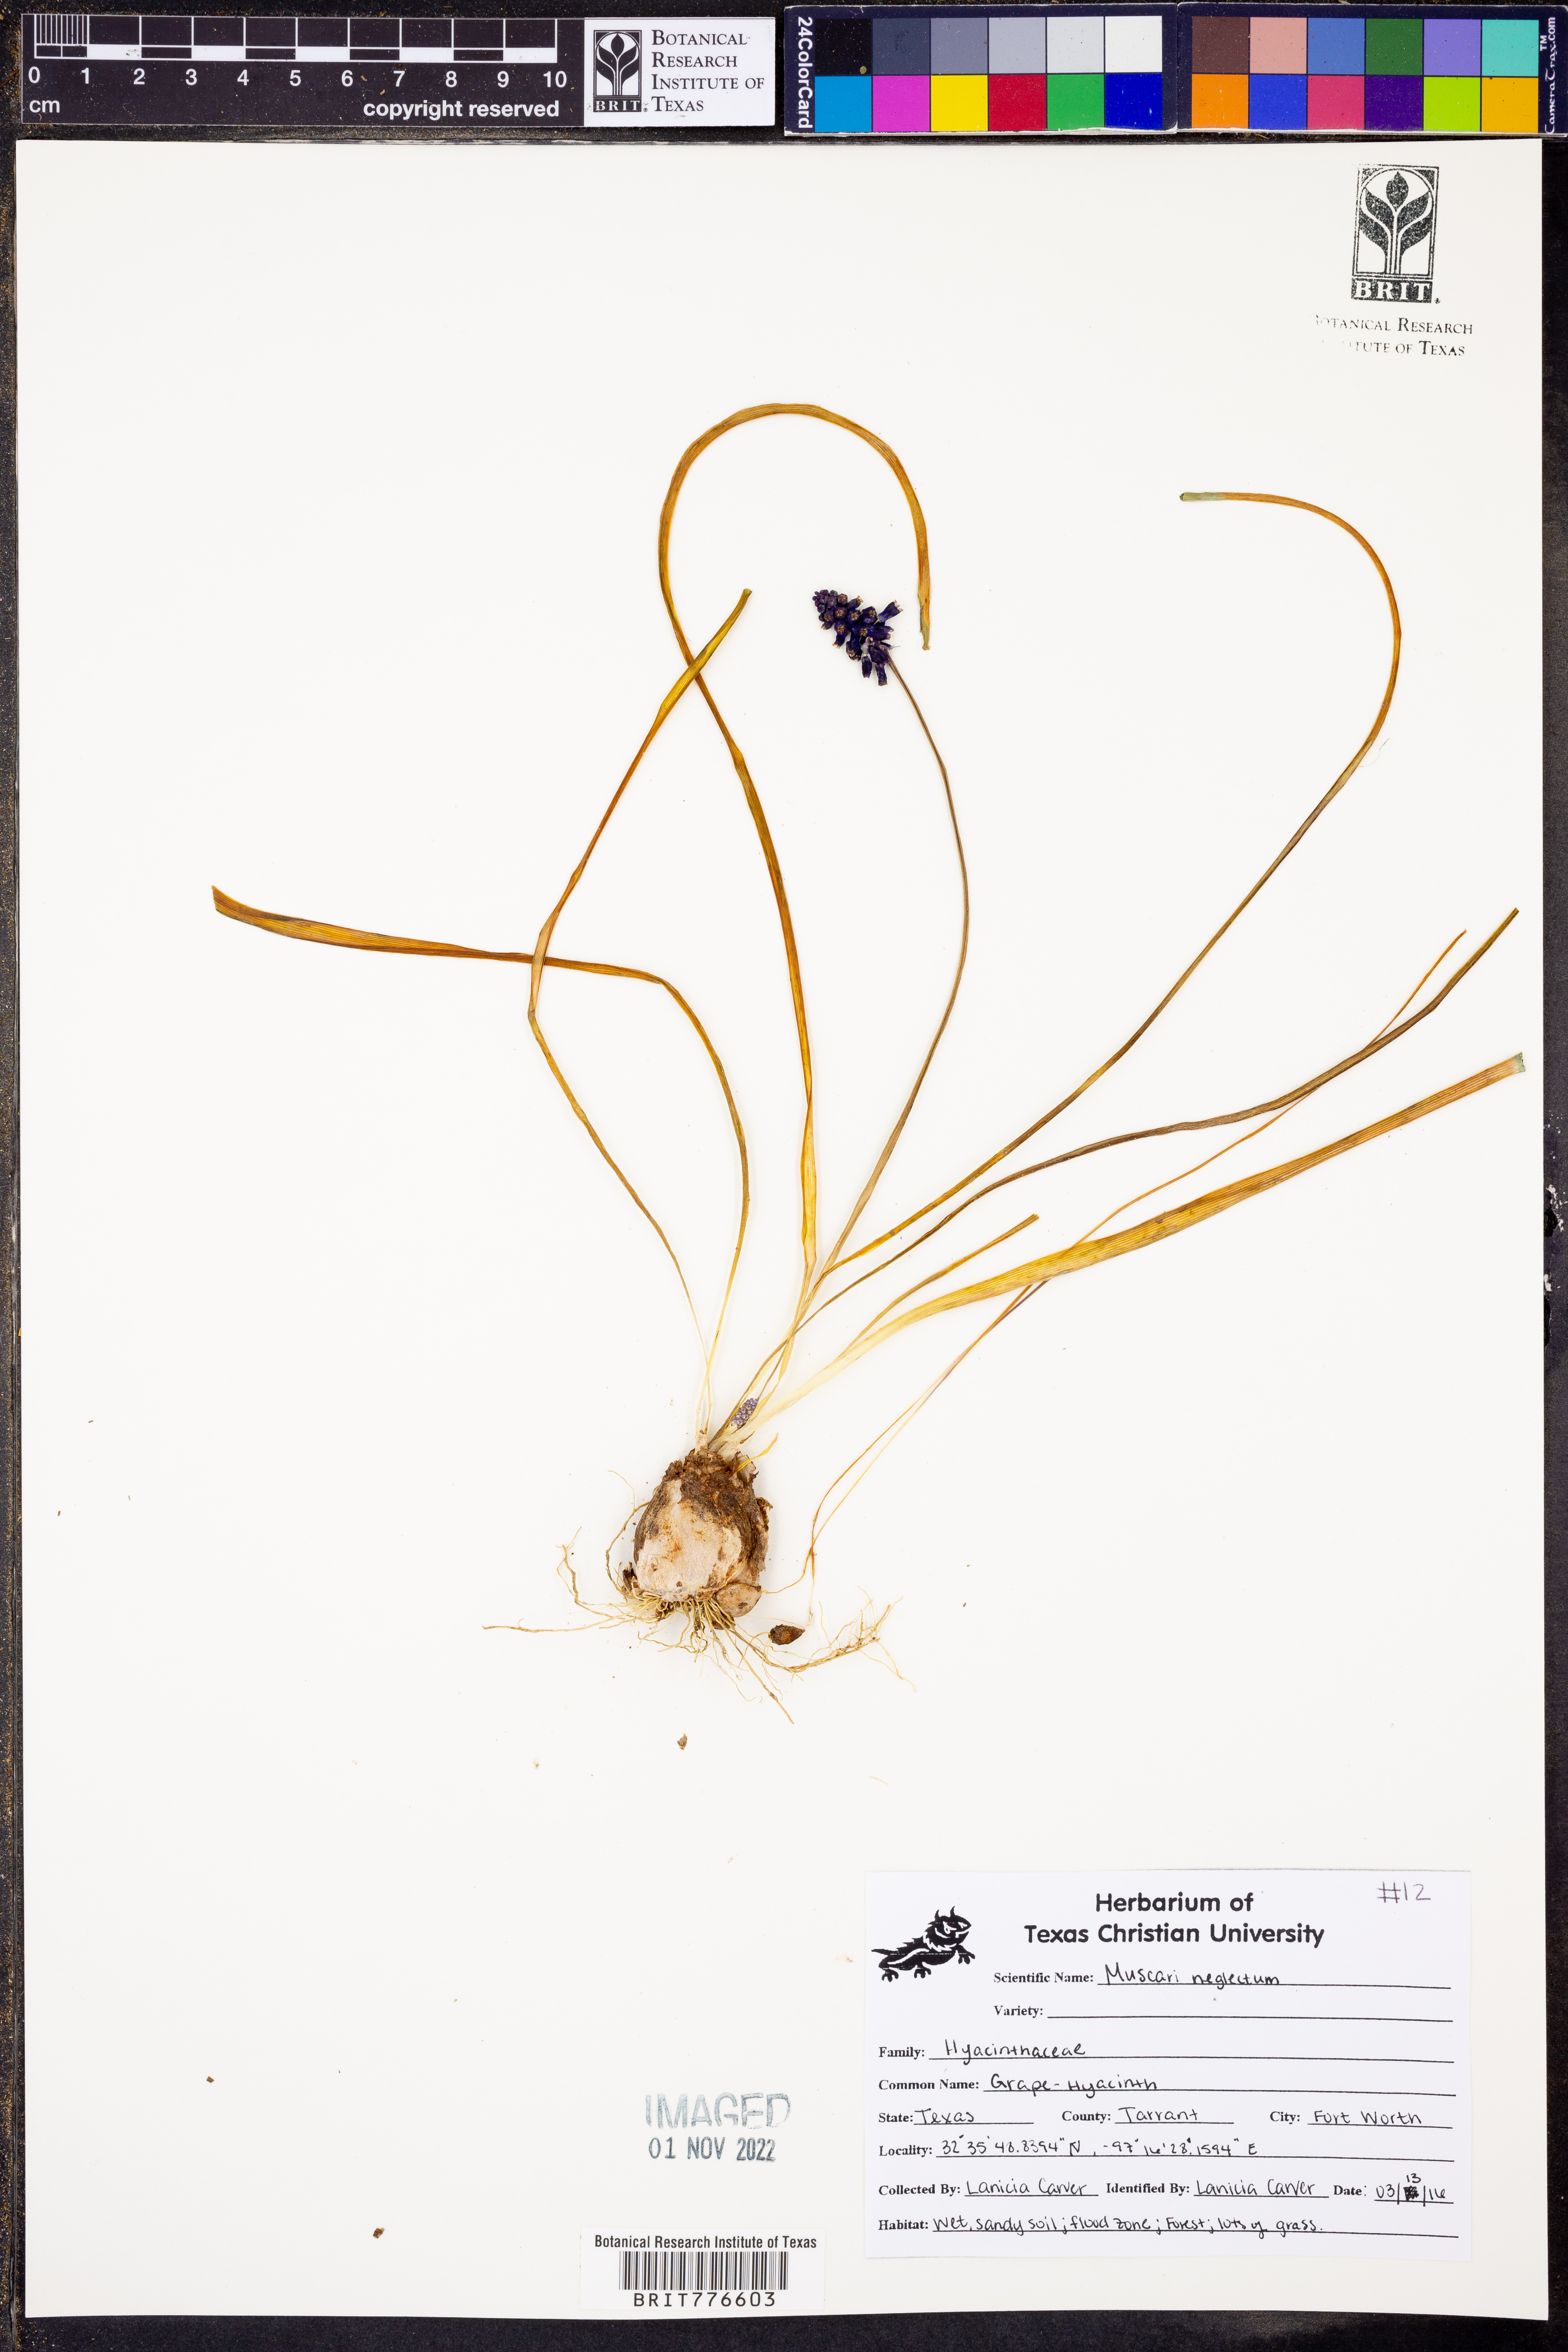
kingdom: Plantae
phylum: Tracheophyta
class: Liliopsida
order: Asparagales
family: Asparagaceae
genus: Muscari
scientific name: Muscari neglectum
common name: Grape-hyacinth
